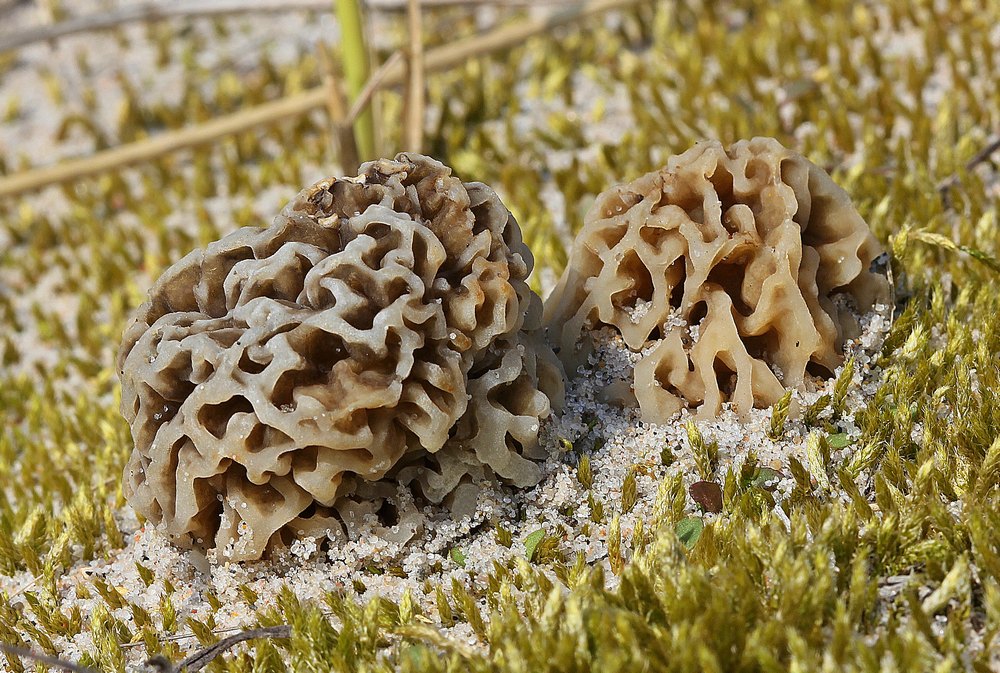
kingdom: Fungi
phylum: Ascomycota
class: Pezizomycetes
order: Pezizales
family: Morchellaceae
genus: Morchella
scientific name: Morchella esculenta
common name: Morel
